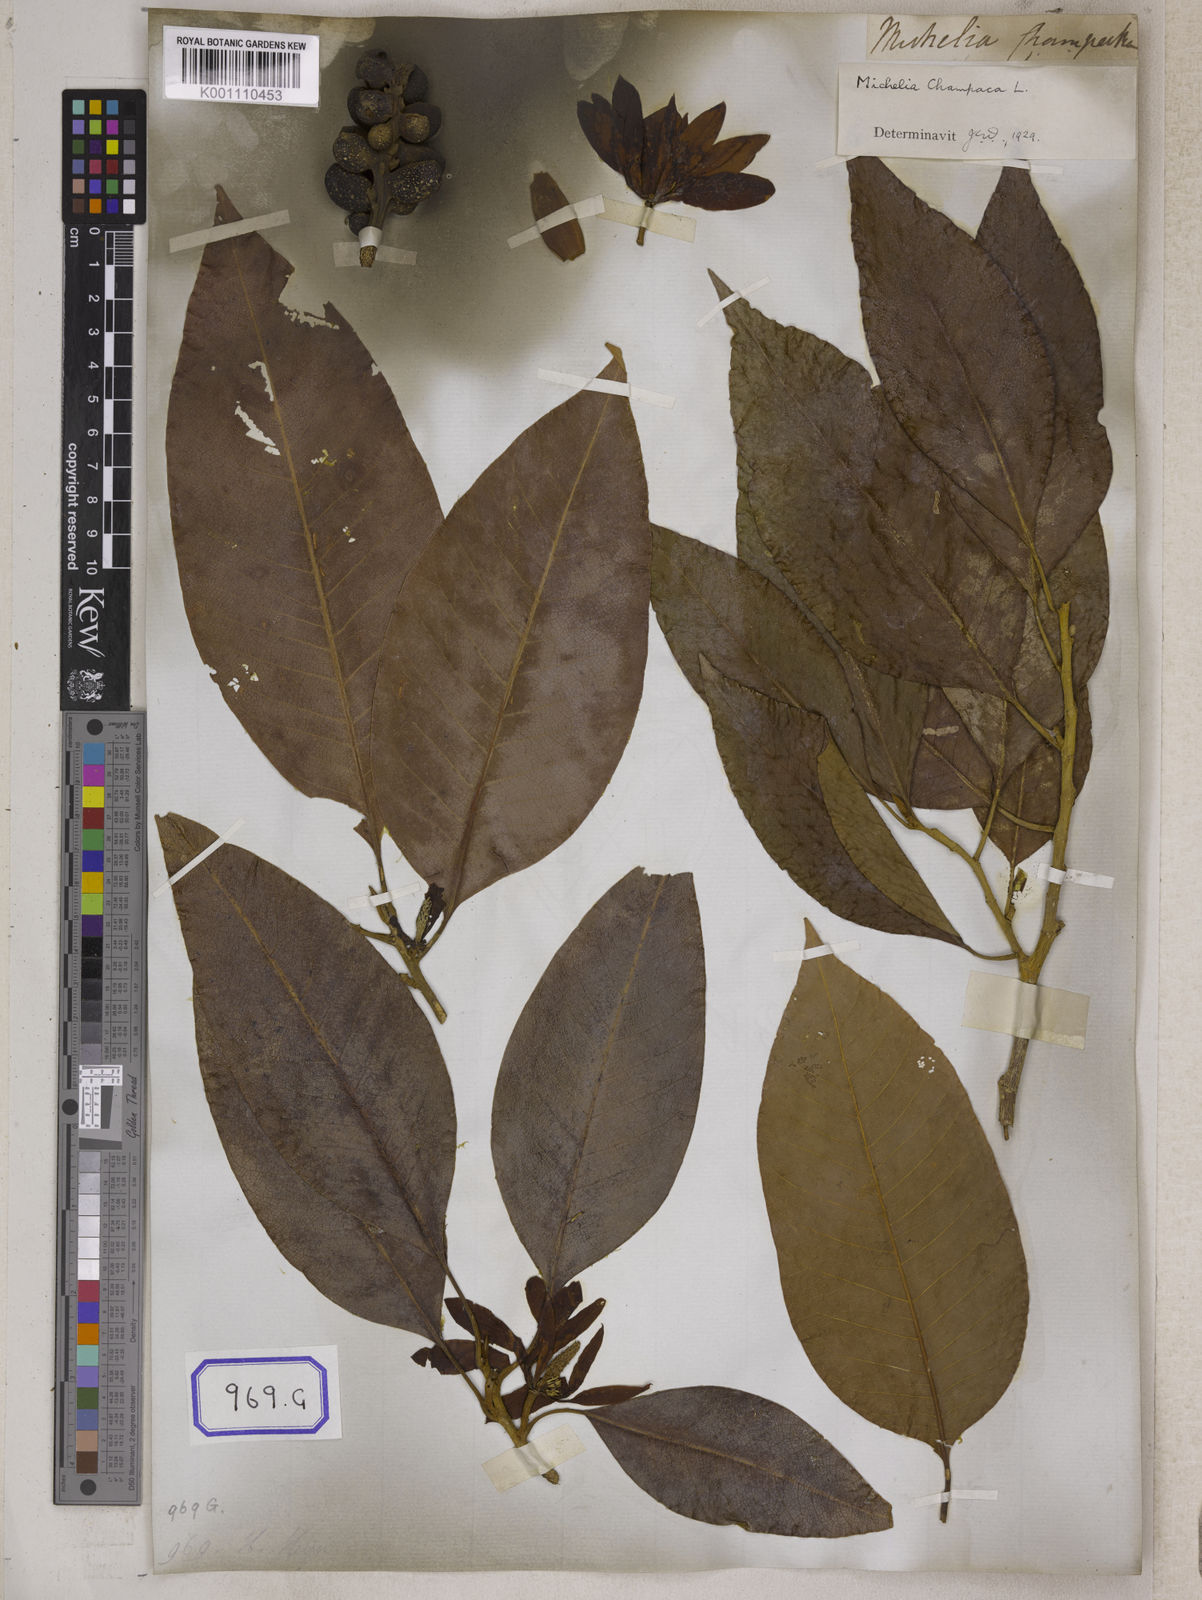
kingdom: Plantae
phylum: Tracheophyta
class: Magnoliopsida
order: Magnoliales
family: Magnoliaceae
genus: Magnolia
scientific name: Magnolia champaca
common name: Champak
